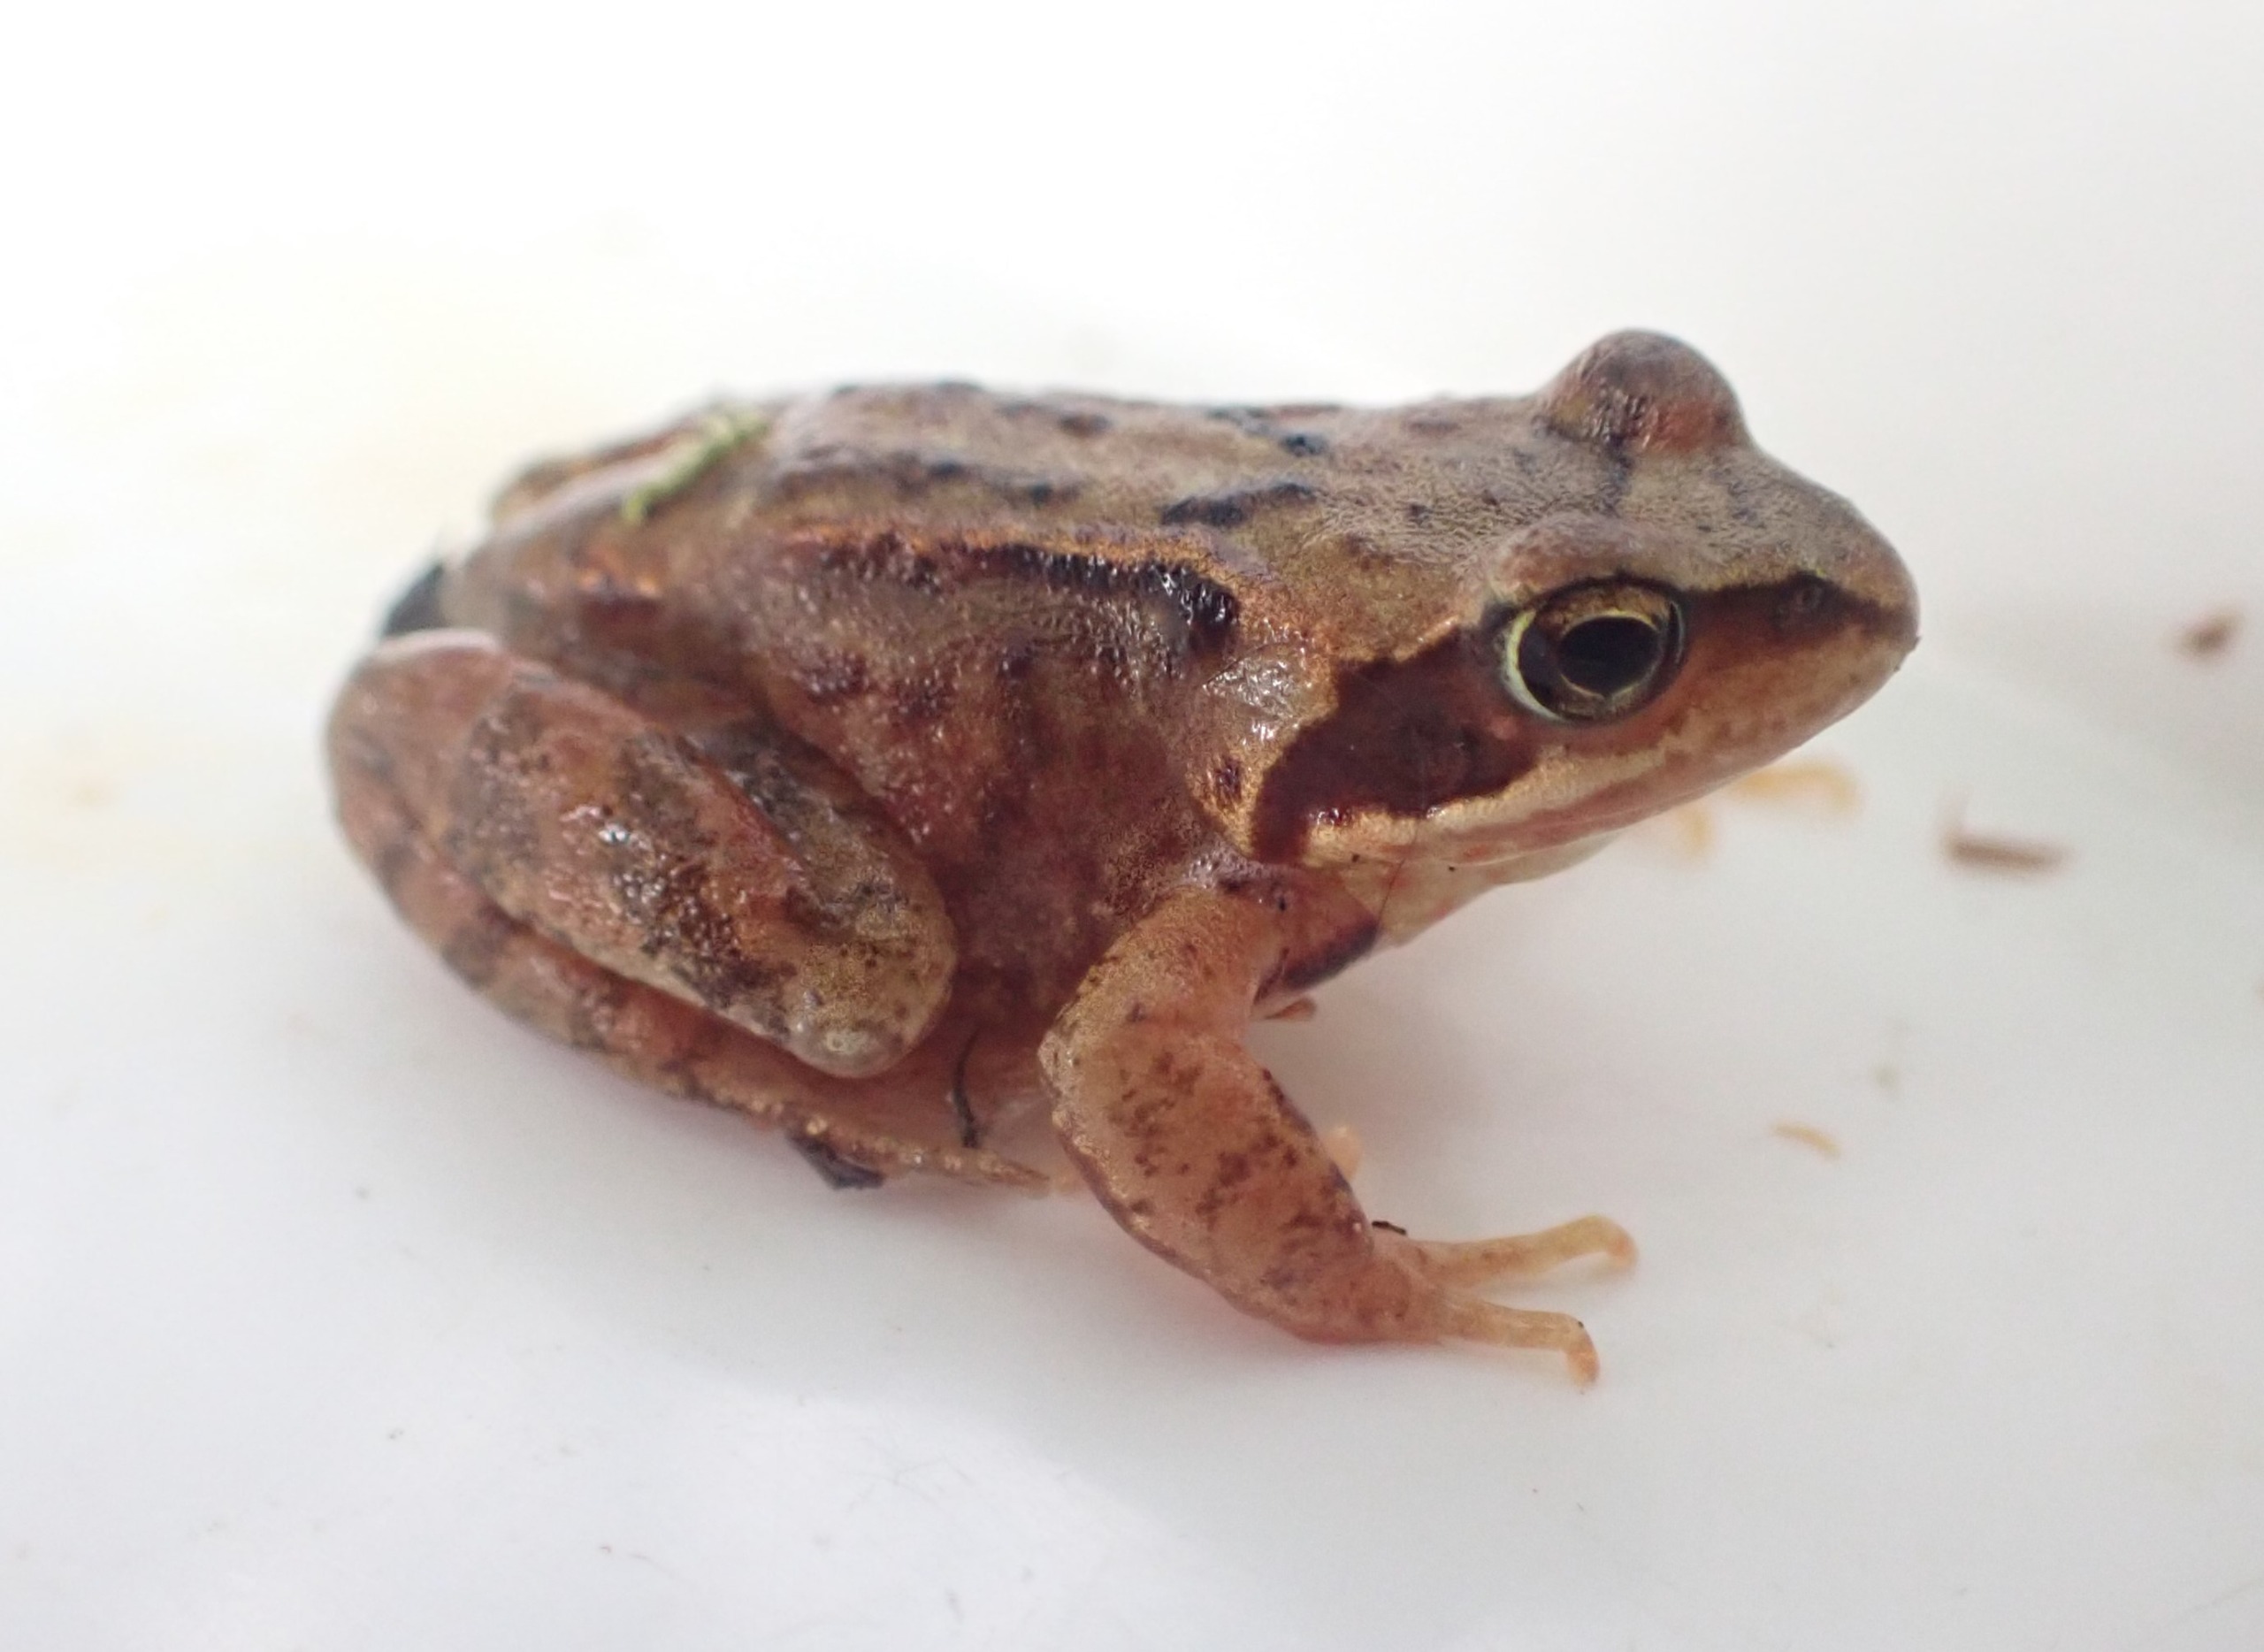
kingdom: Animalia
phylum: Chordata
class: Amphibia
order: Anura
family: Ranidae
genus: Rana
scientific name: Rana temporaria
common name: Butsnudet frø
